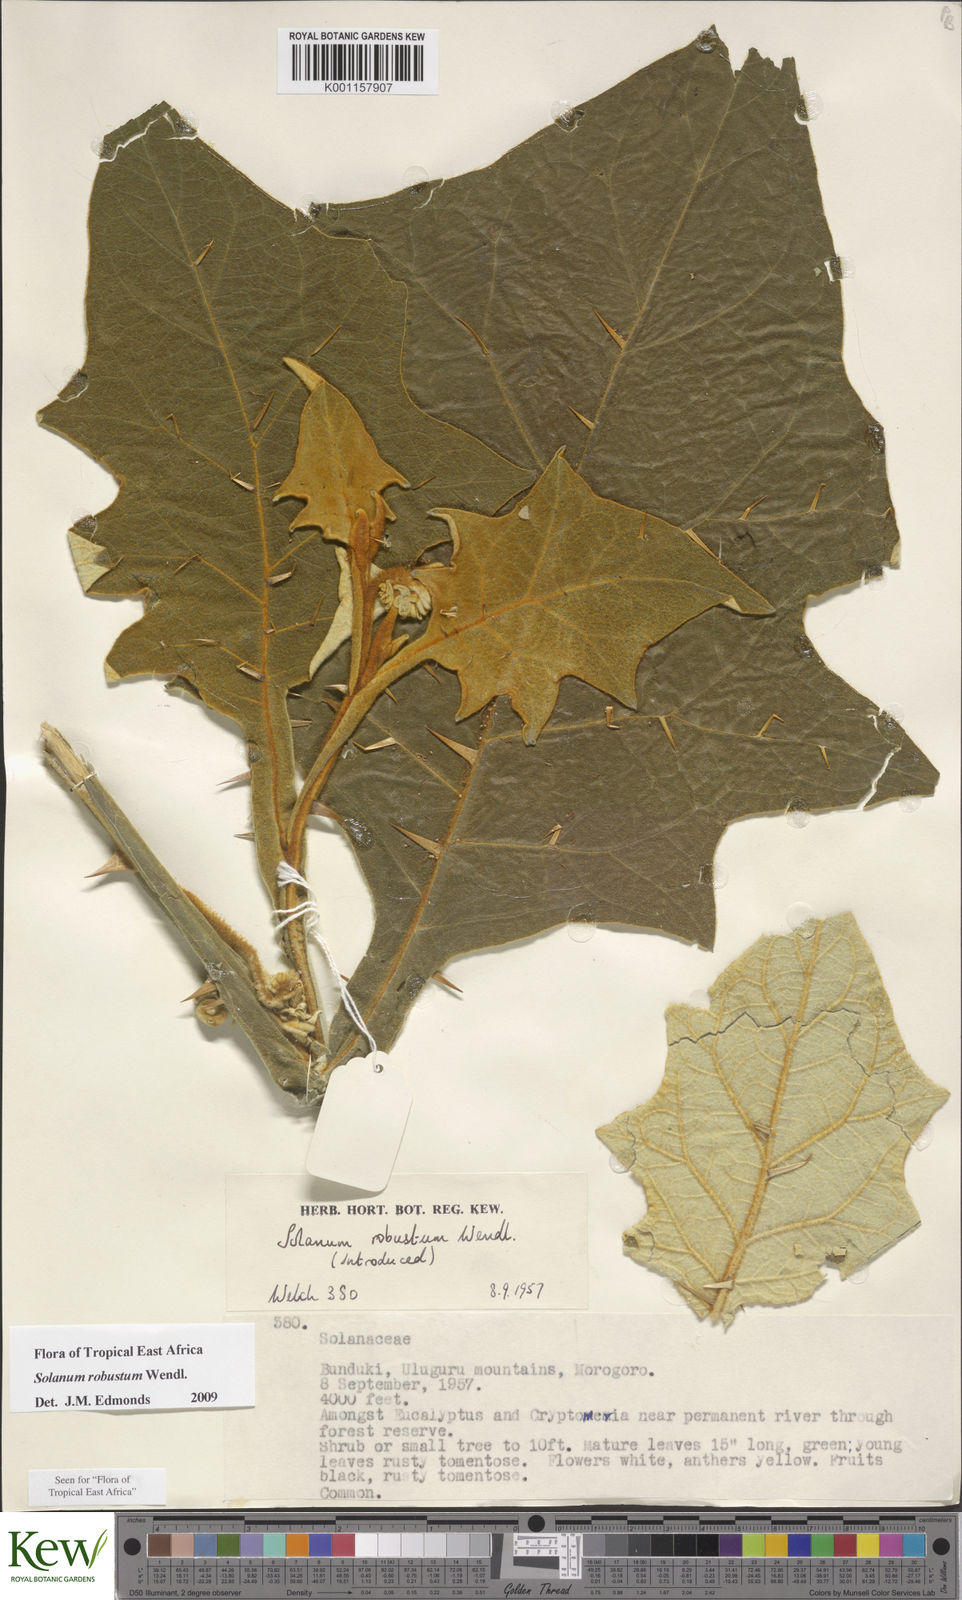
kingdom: Plantae
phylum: Tracheophyta
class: Magnoliopsida
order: Solanales
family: Solanaceae
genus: Solanum
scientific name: Solanum robustum
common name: Shrubby nightshade
